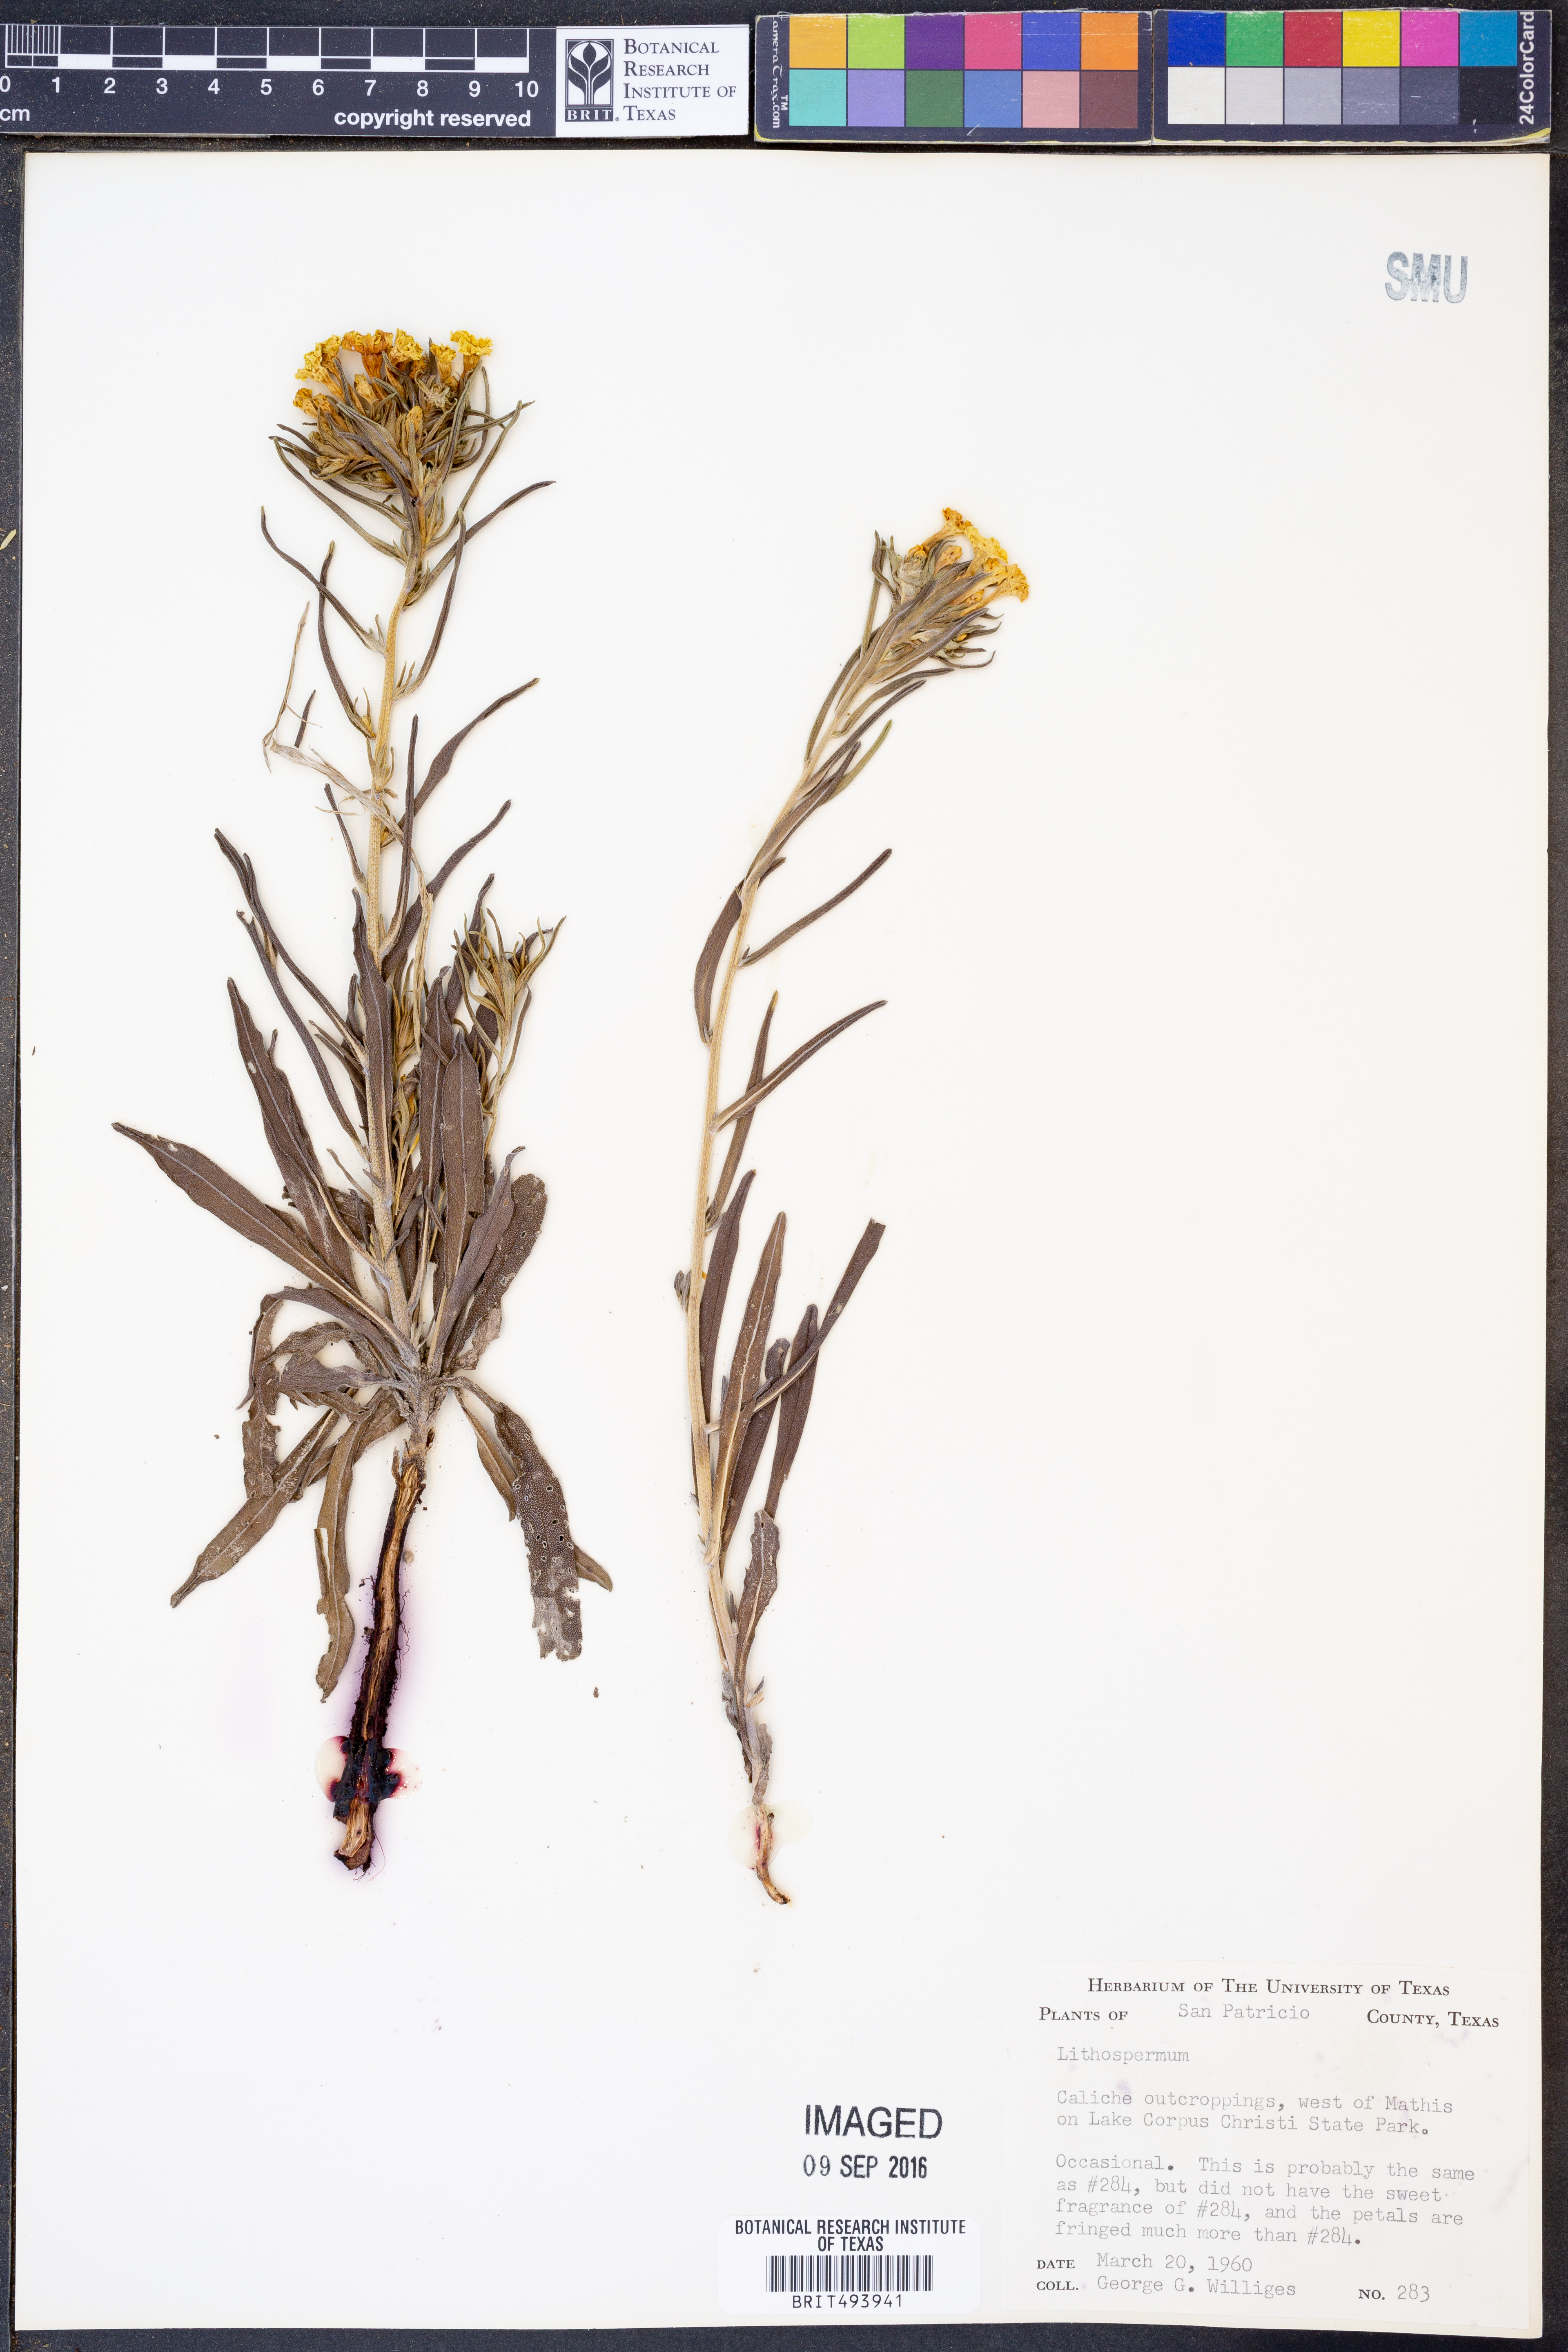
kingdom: Plantae
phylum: Tracheophyta
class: Magnoliopsida
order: Boraginales
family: Boraginaceae
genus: Lithospermum
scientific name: Lithospermum
